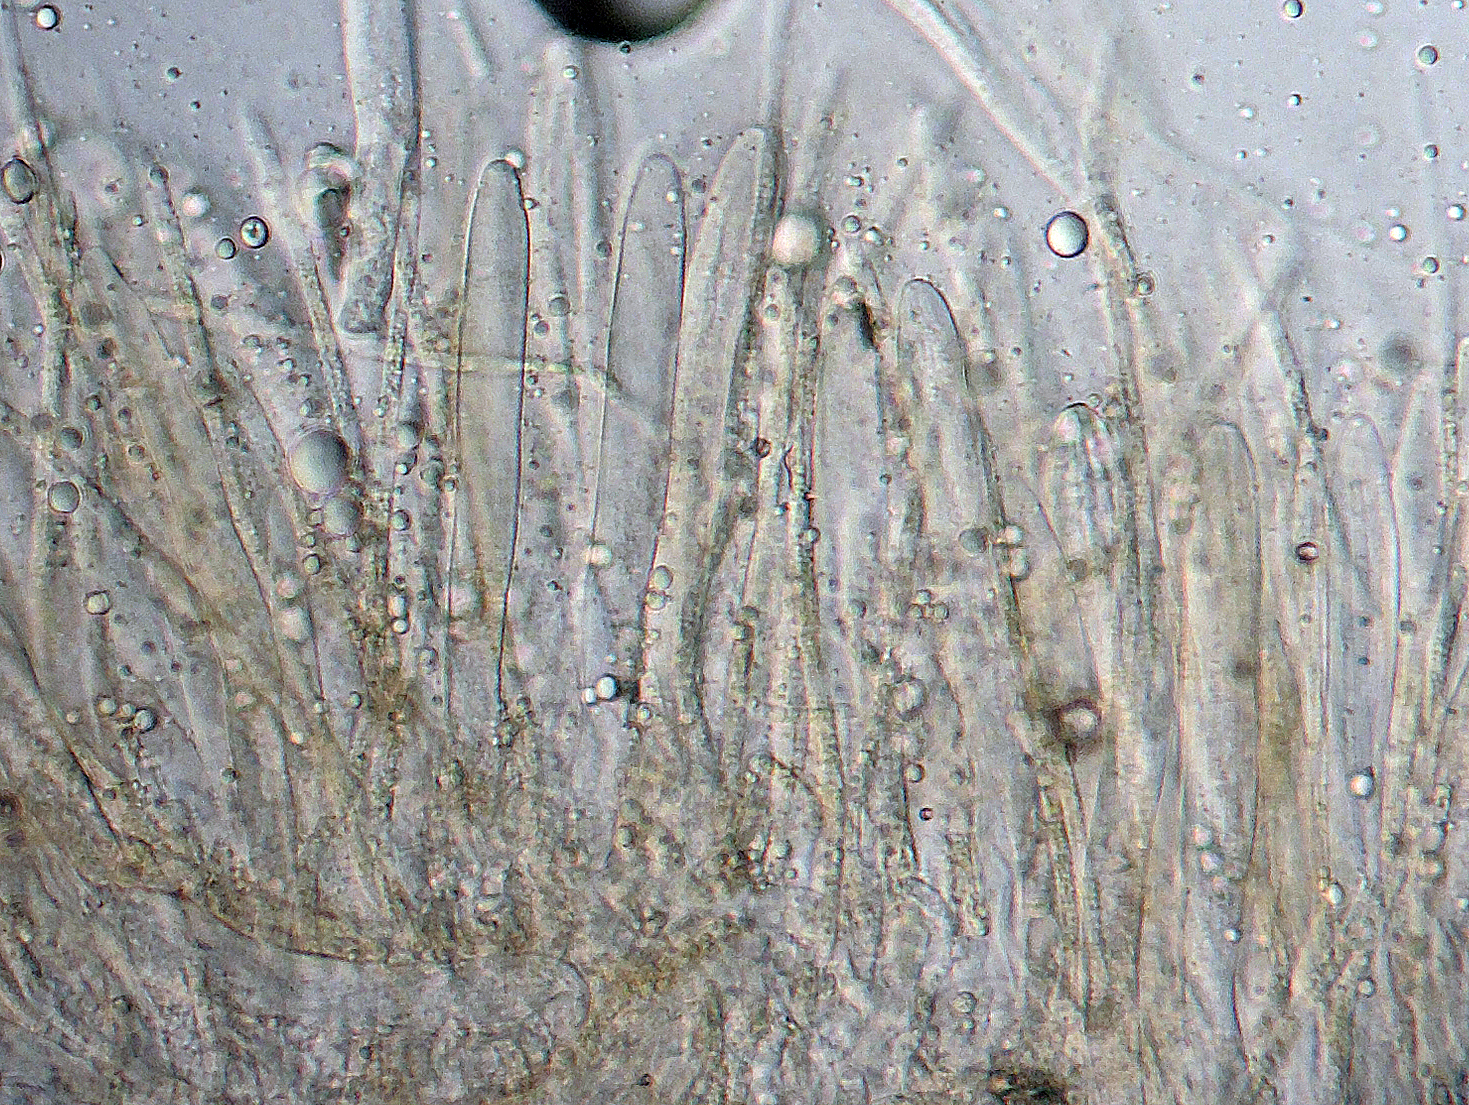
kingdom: Fungi
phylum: Ascomycota
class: Leotiomycetes
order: Helotiales
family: Lachnaceae
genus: Lachnellula
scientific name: Lachnellula pseudofarinacea
